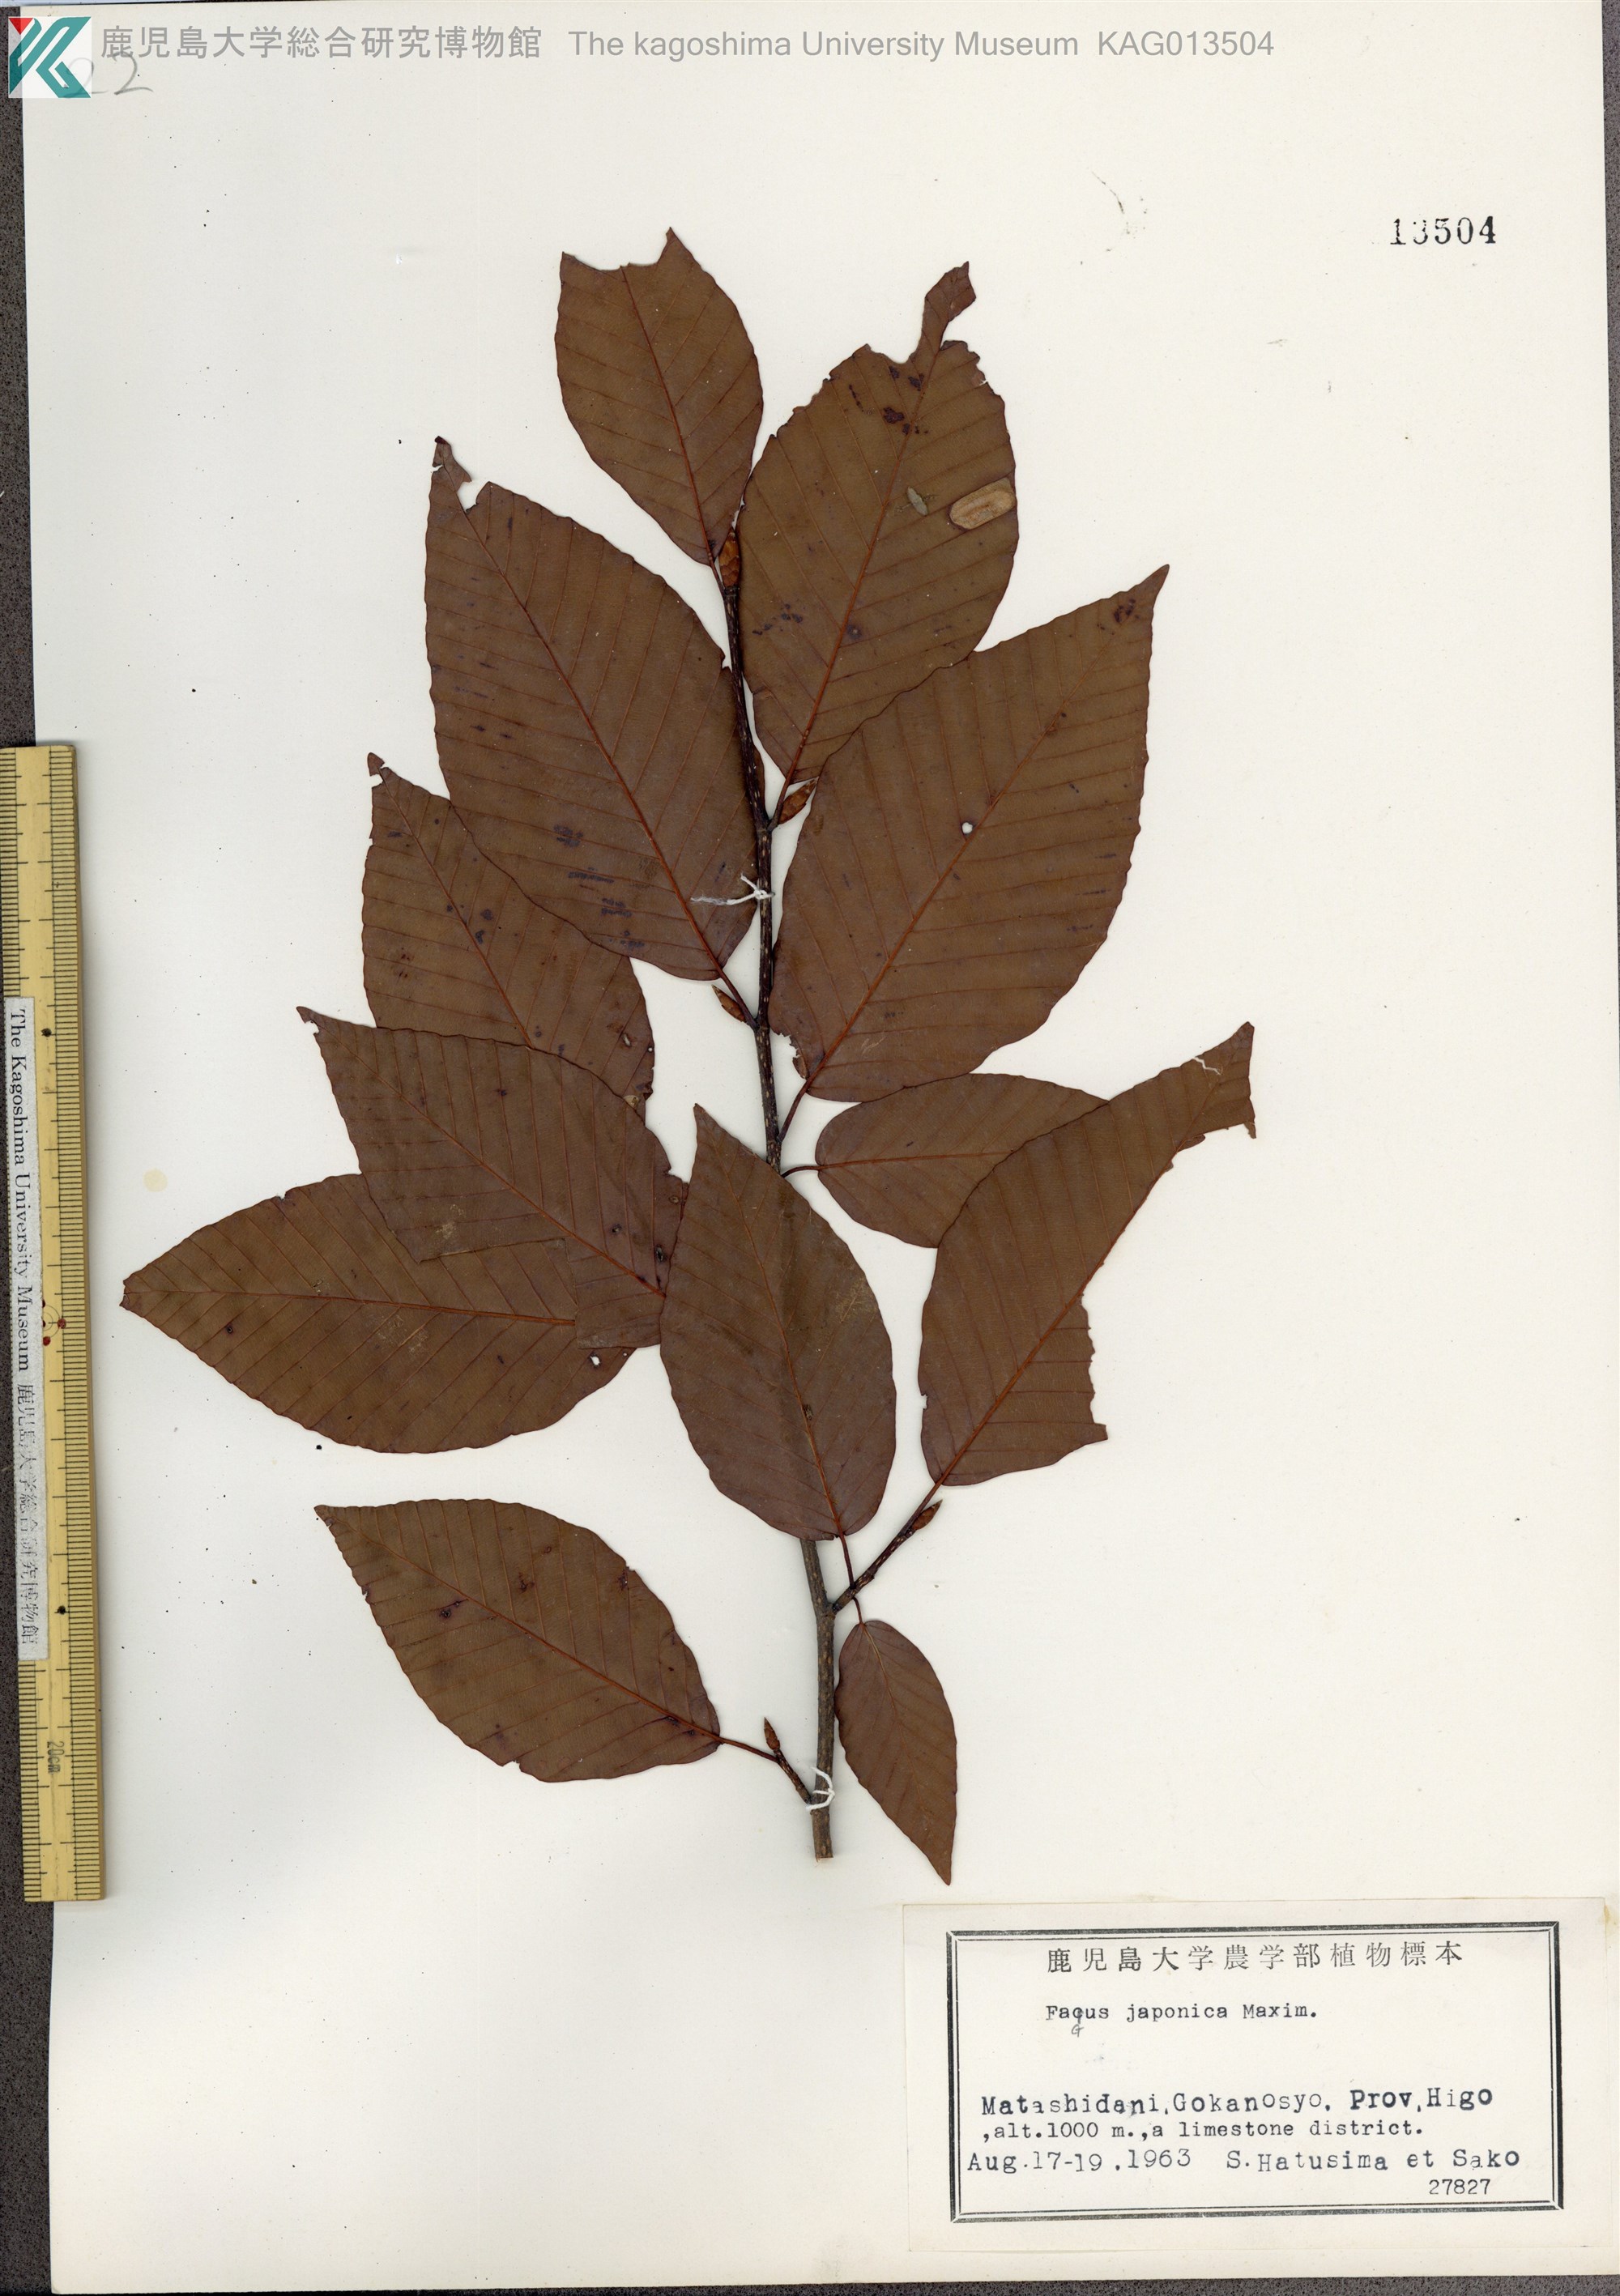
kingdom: Plantae
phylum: Tracheophyta
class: Magnoliopsida
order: Fagales
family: Fagaceae
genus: Fagus
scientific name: Fagus japonica
